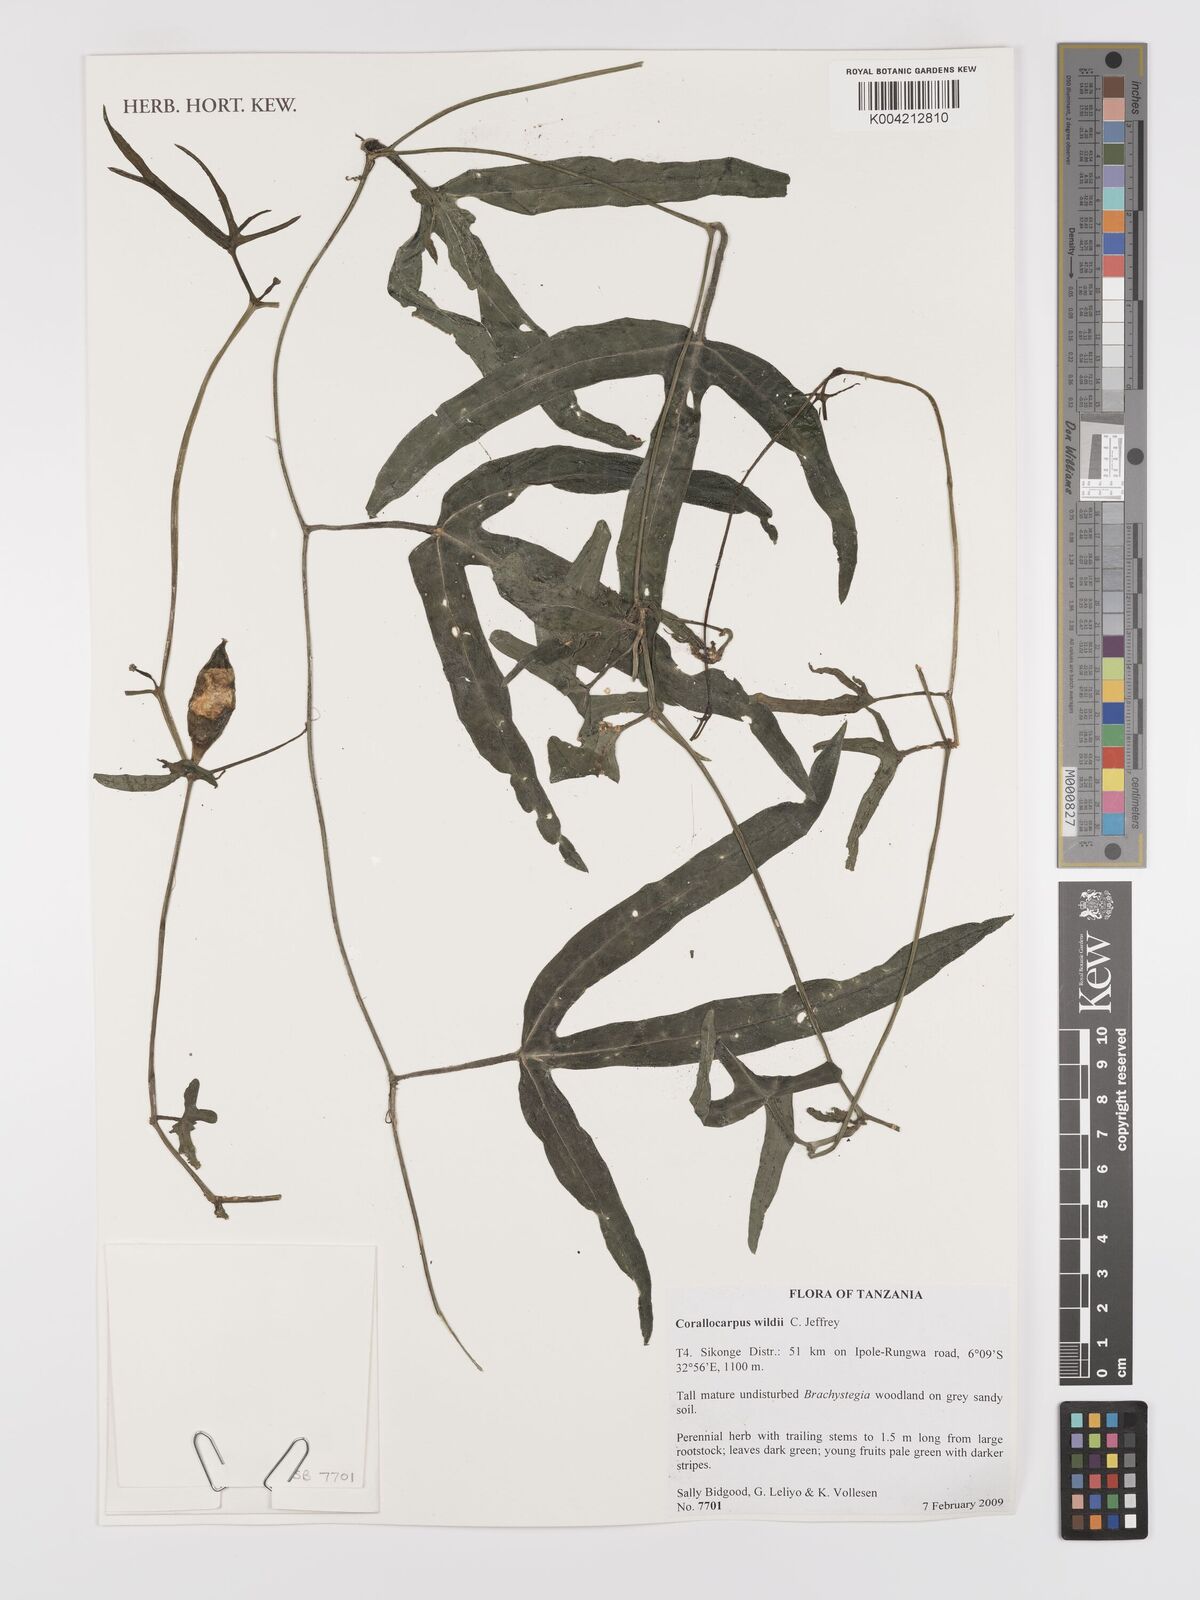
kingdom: Plantae
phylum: Tracheophyta
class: Magnoliopsida
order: Cucurbitales
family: Cucurbitaceae
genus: Corallocarpus
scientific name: Corallocarpus tenuissimus
